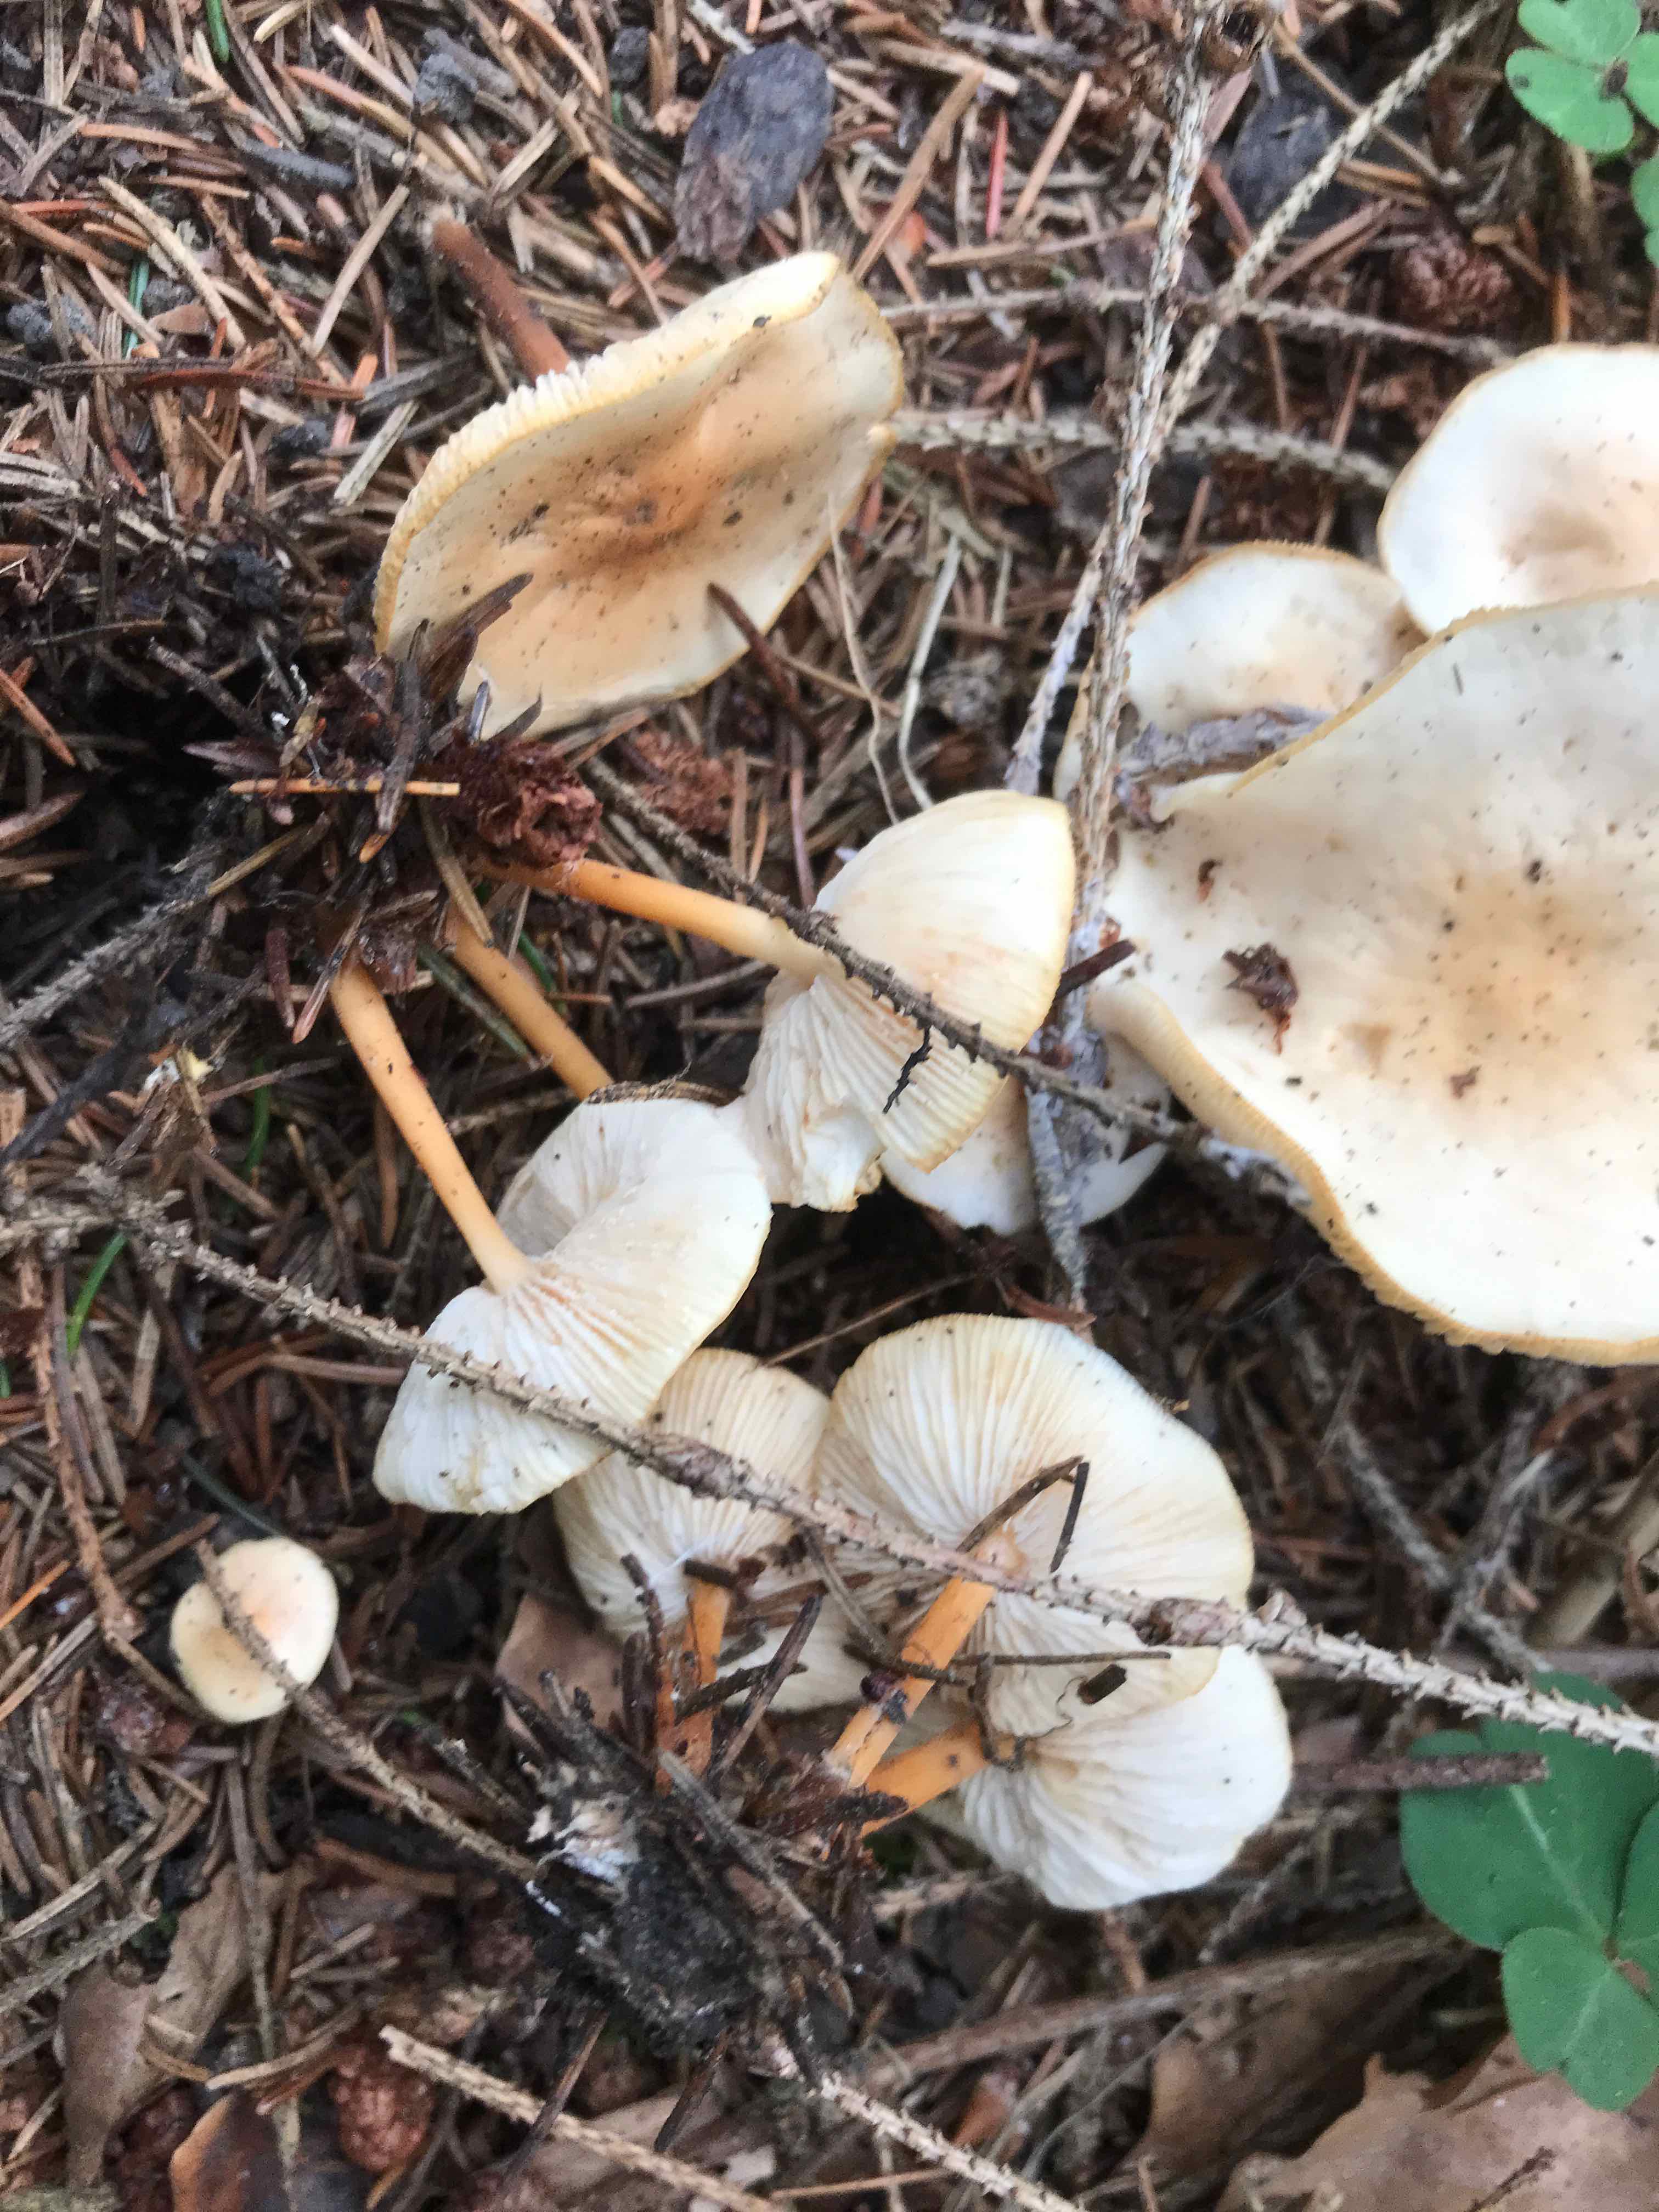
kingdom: Fungi
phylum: Basidiomycota
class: Agaricomycetes
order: Agaricales
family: Omphalotaceae
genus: Gymnopus
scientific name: Gymnopus
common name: fladhat
